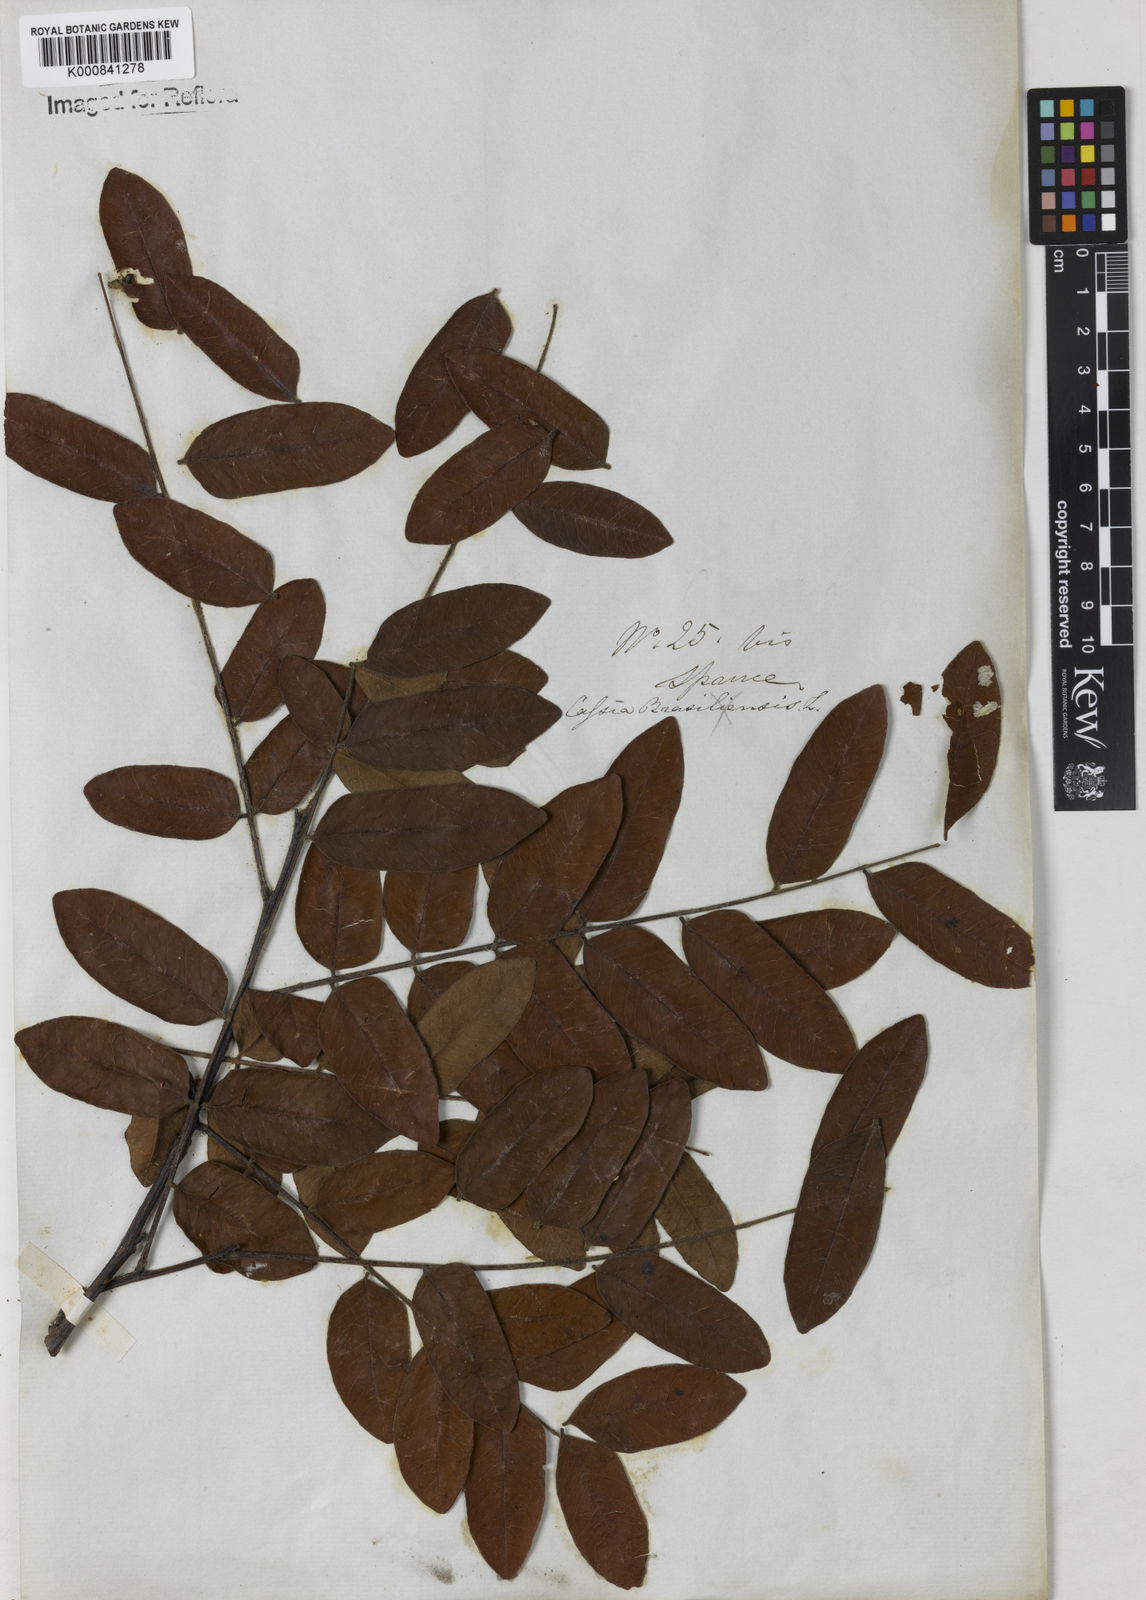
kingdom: Plantae
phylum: Tracheophyta
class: Magnoliopsida
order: Fabales
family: Fabaceae
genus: Cassia
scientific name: Cassia leiandra
